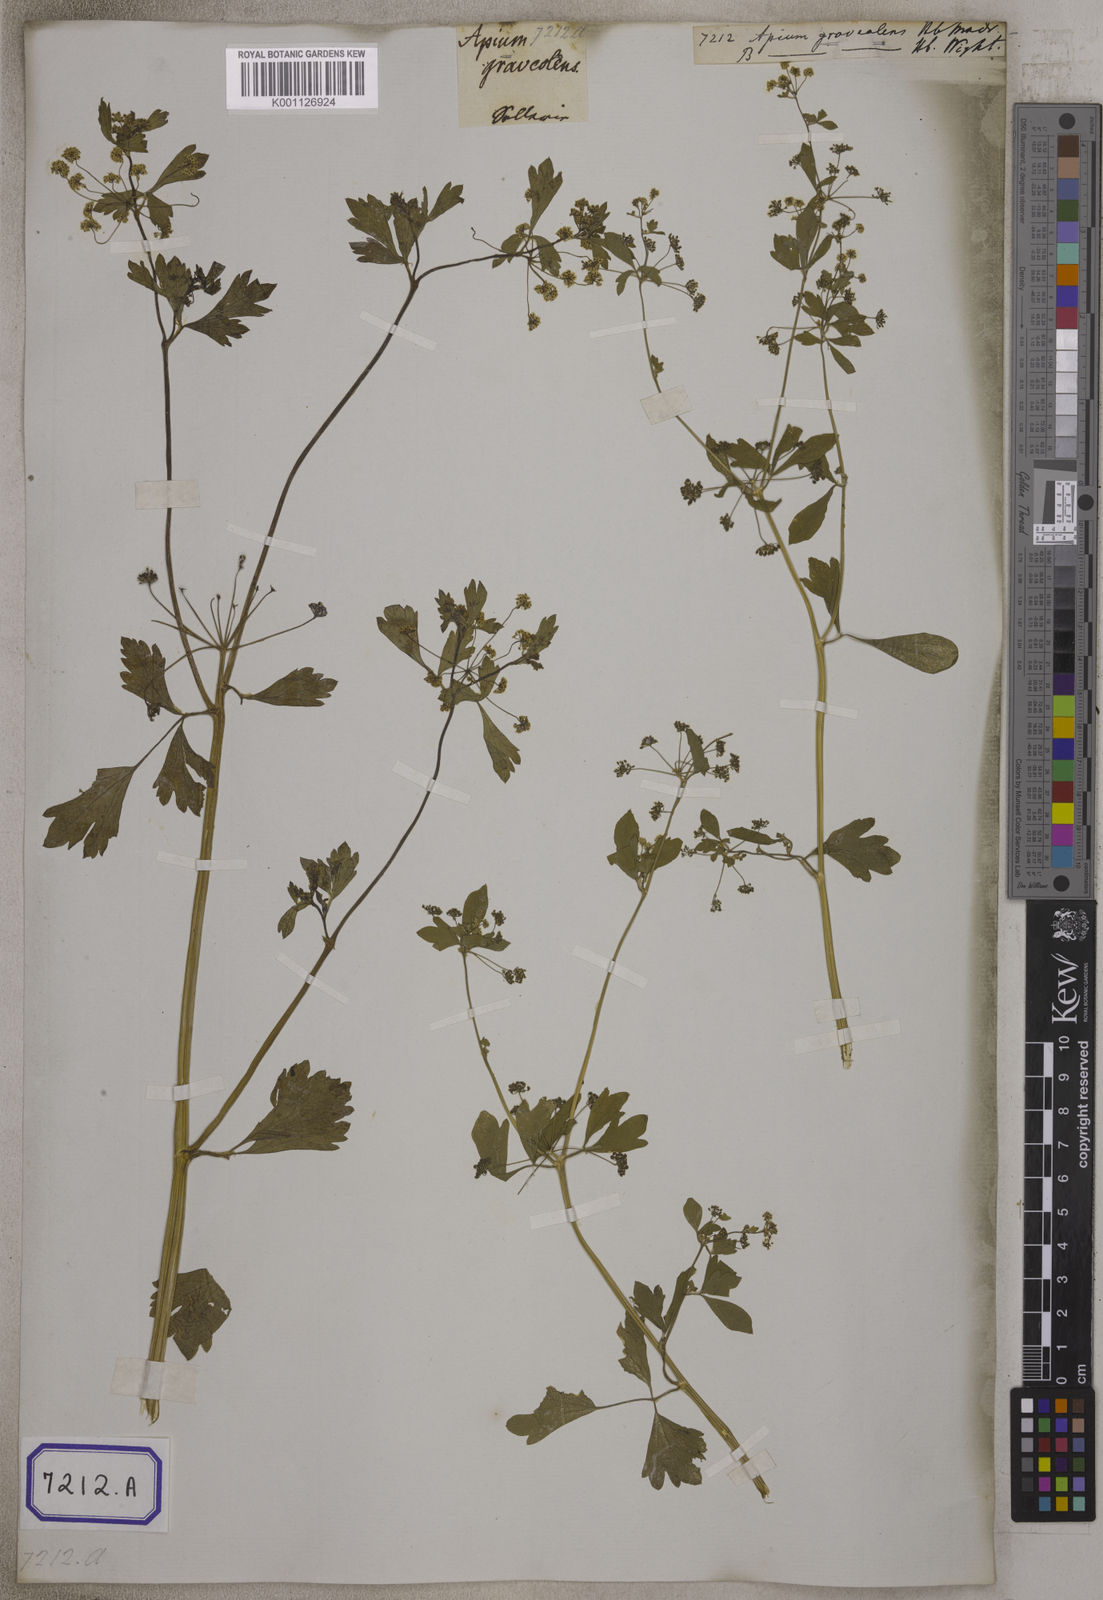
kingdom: Plantae
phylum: Tracheophyta
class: Magnoliopsida
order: Apiales
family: Apiaceae
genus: Apium
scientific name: Apium graveolens
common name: Wild celery
